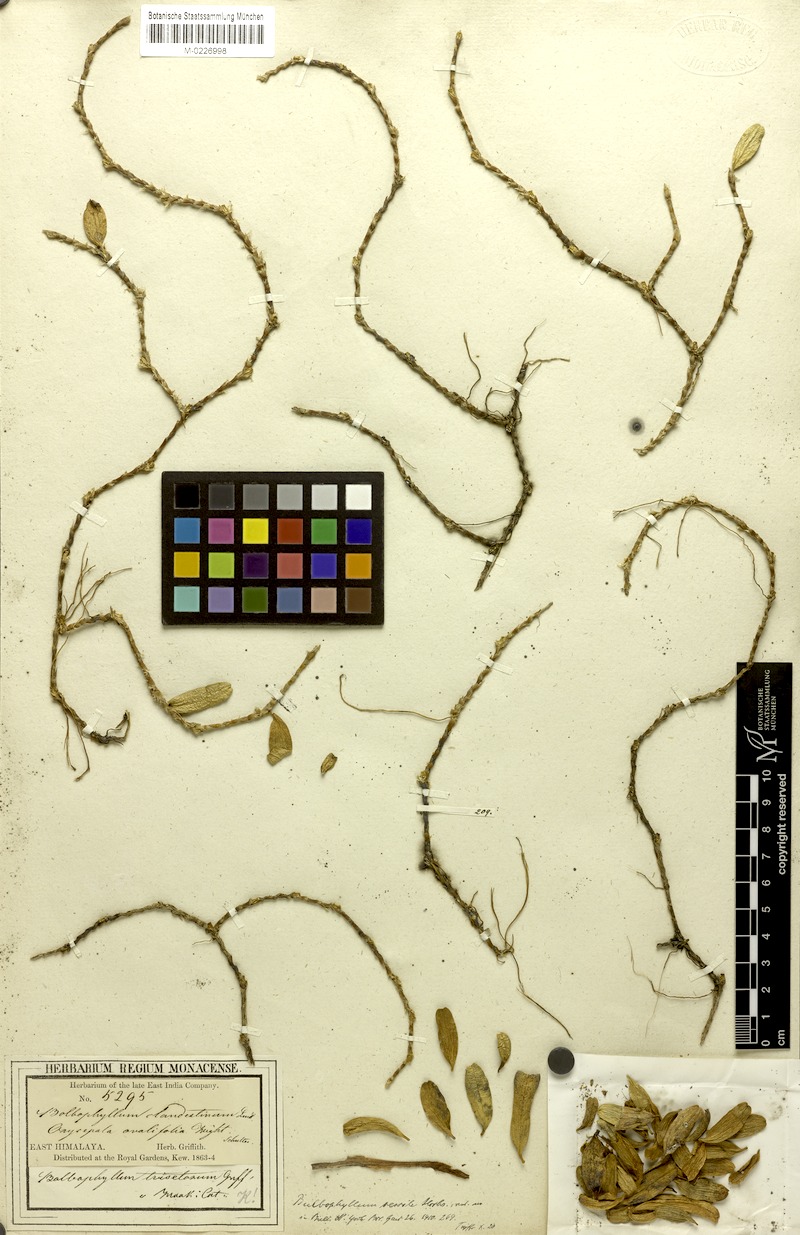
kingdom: Plantae
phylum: Tracheophyta
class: Liliopsida
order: Asparagales
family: Orchidaceae
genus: Bulbophyllum
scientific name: Bulbophyllum clandestinum
